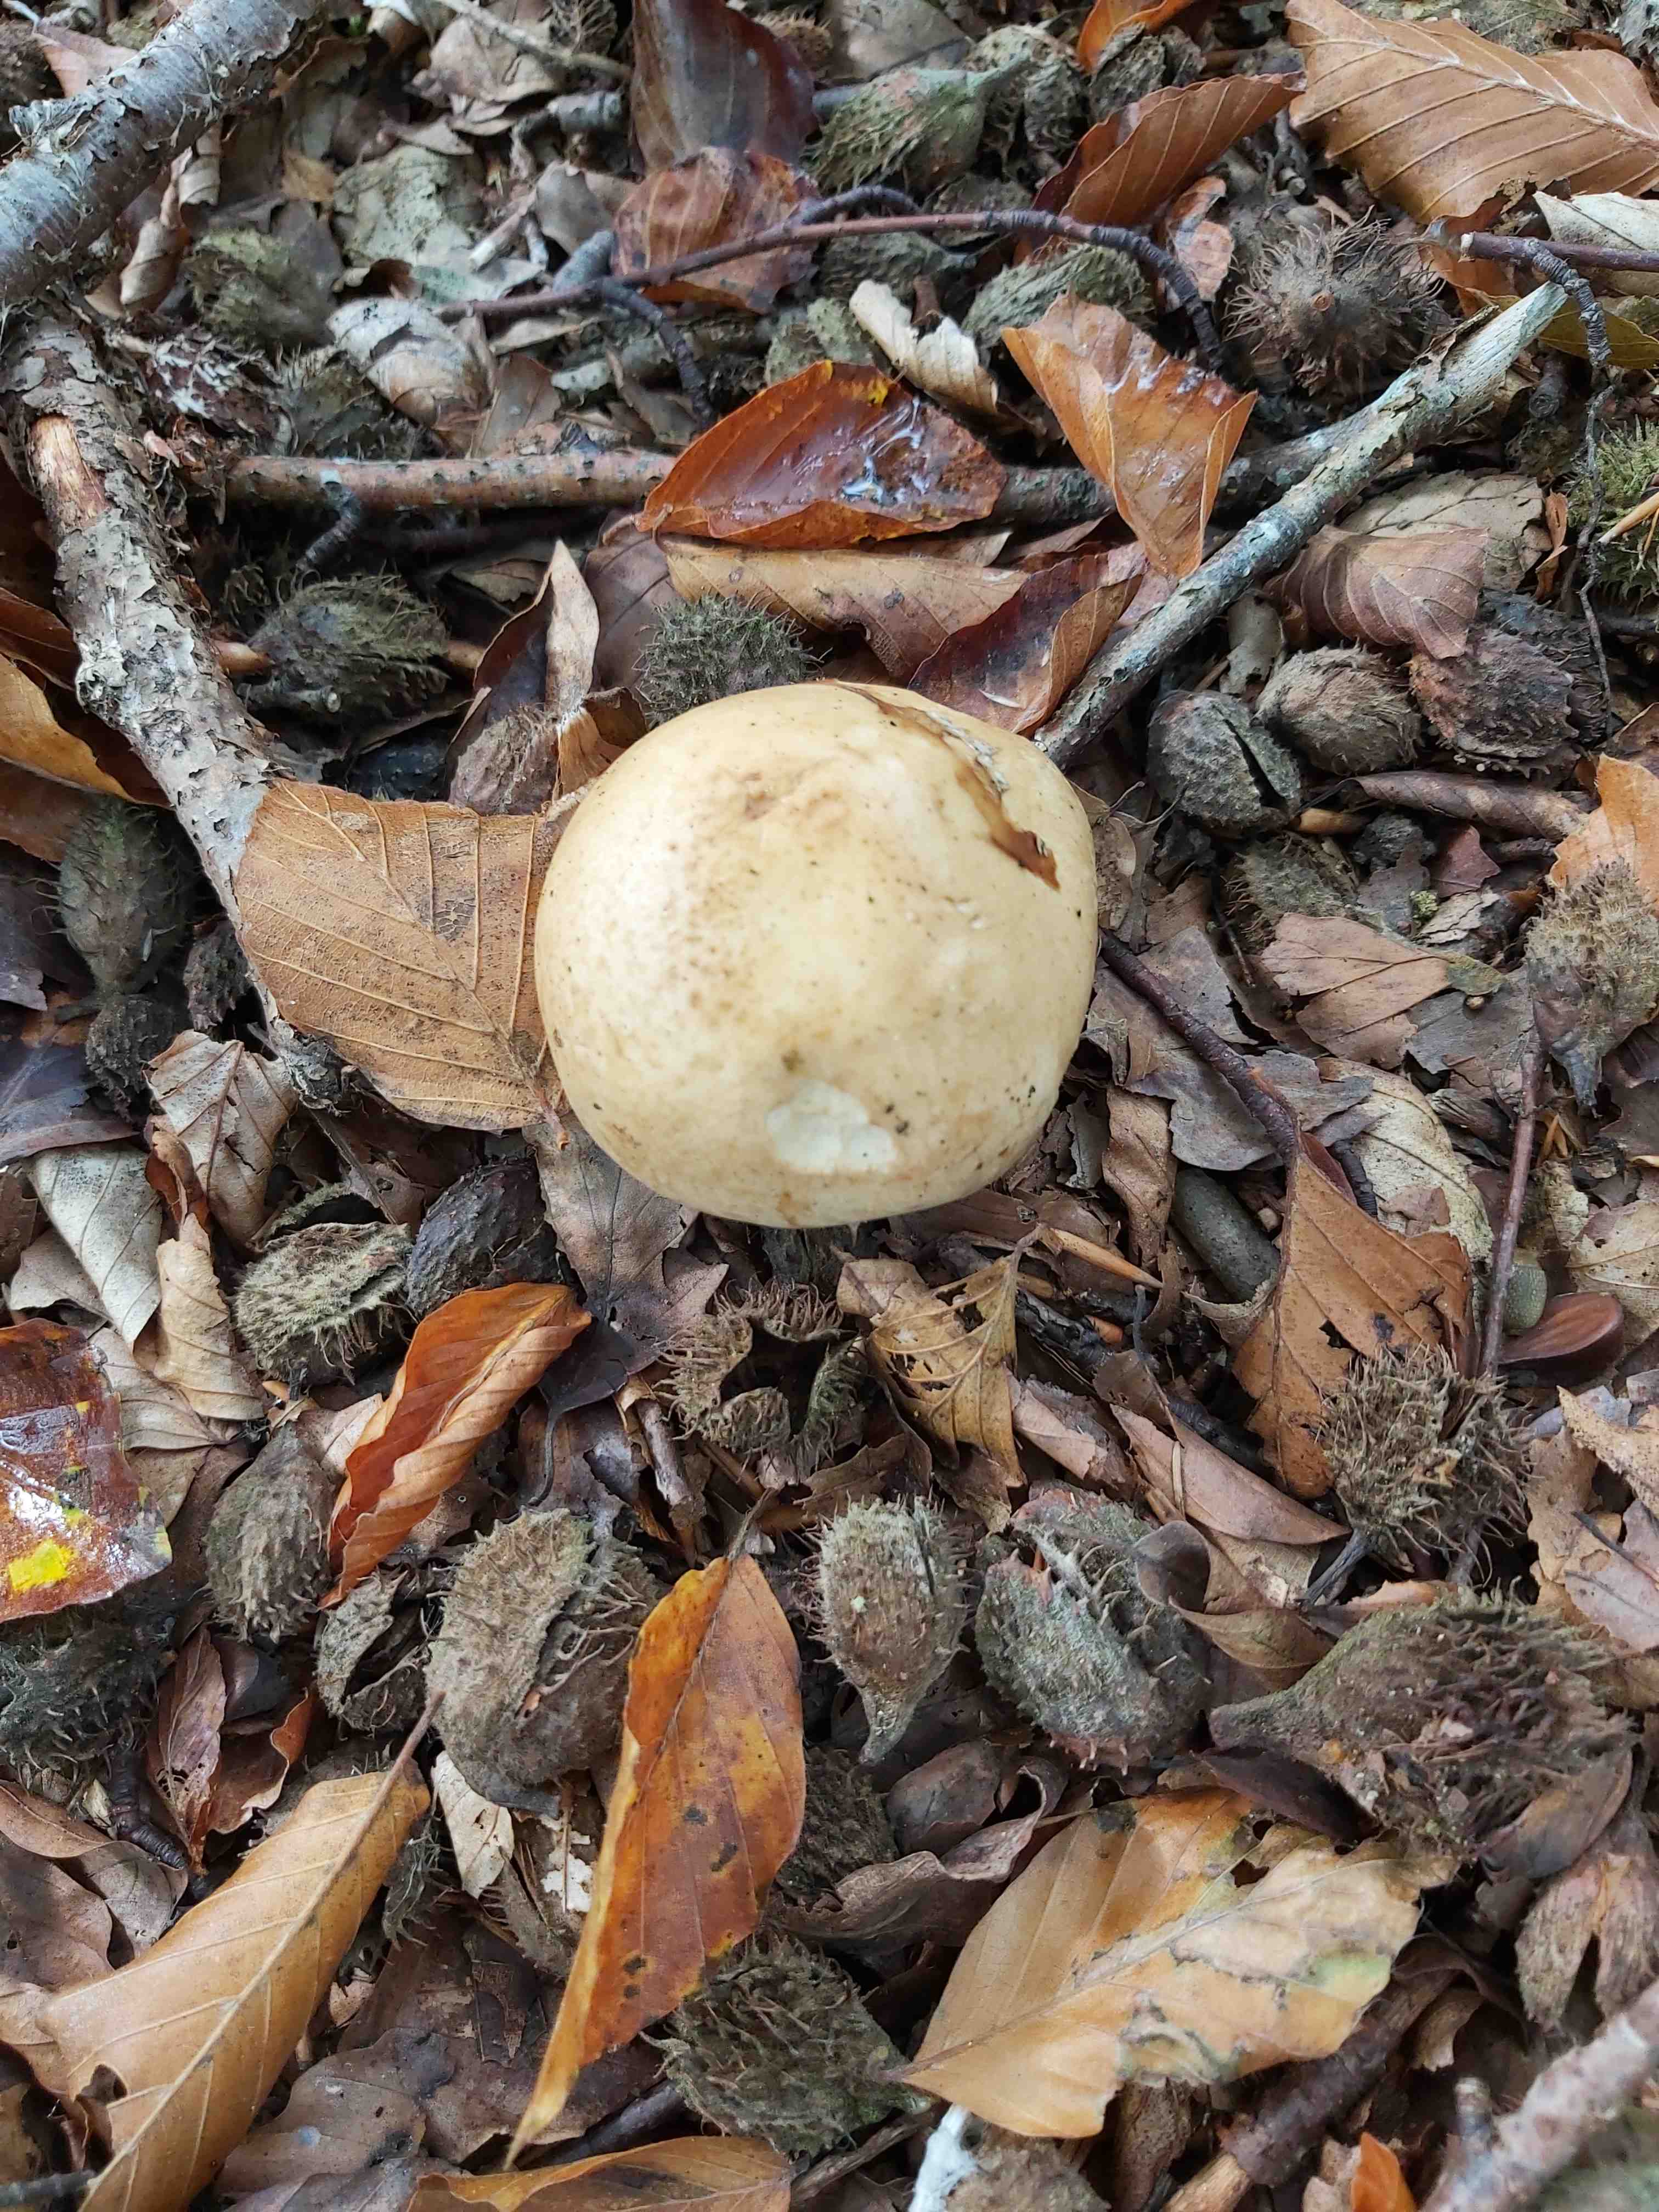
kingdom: Fungi
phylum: Basidiomycota
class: Agaricomycetes
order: Agaricales
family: Hymenogastraceae
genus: Hebeloma
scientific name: Hebeloma radicosum
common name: pælerods-tåreblad
